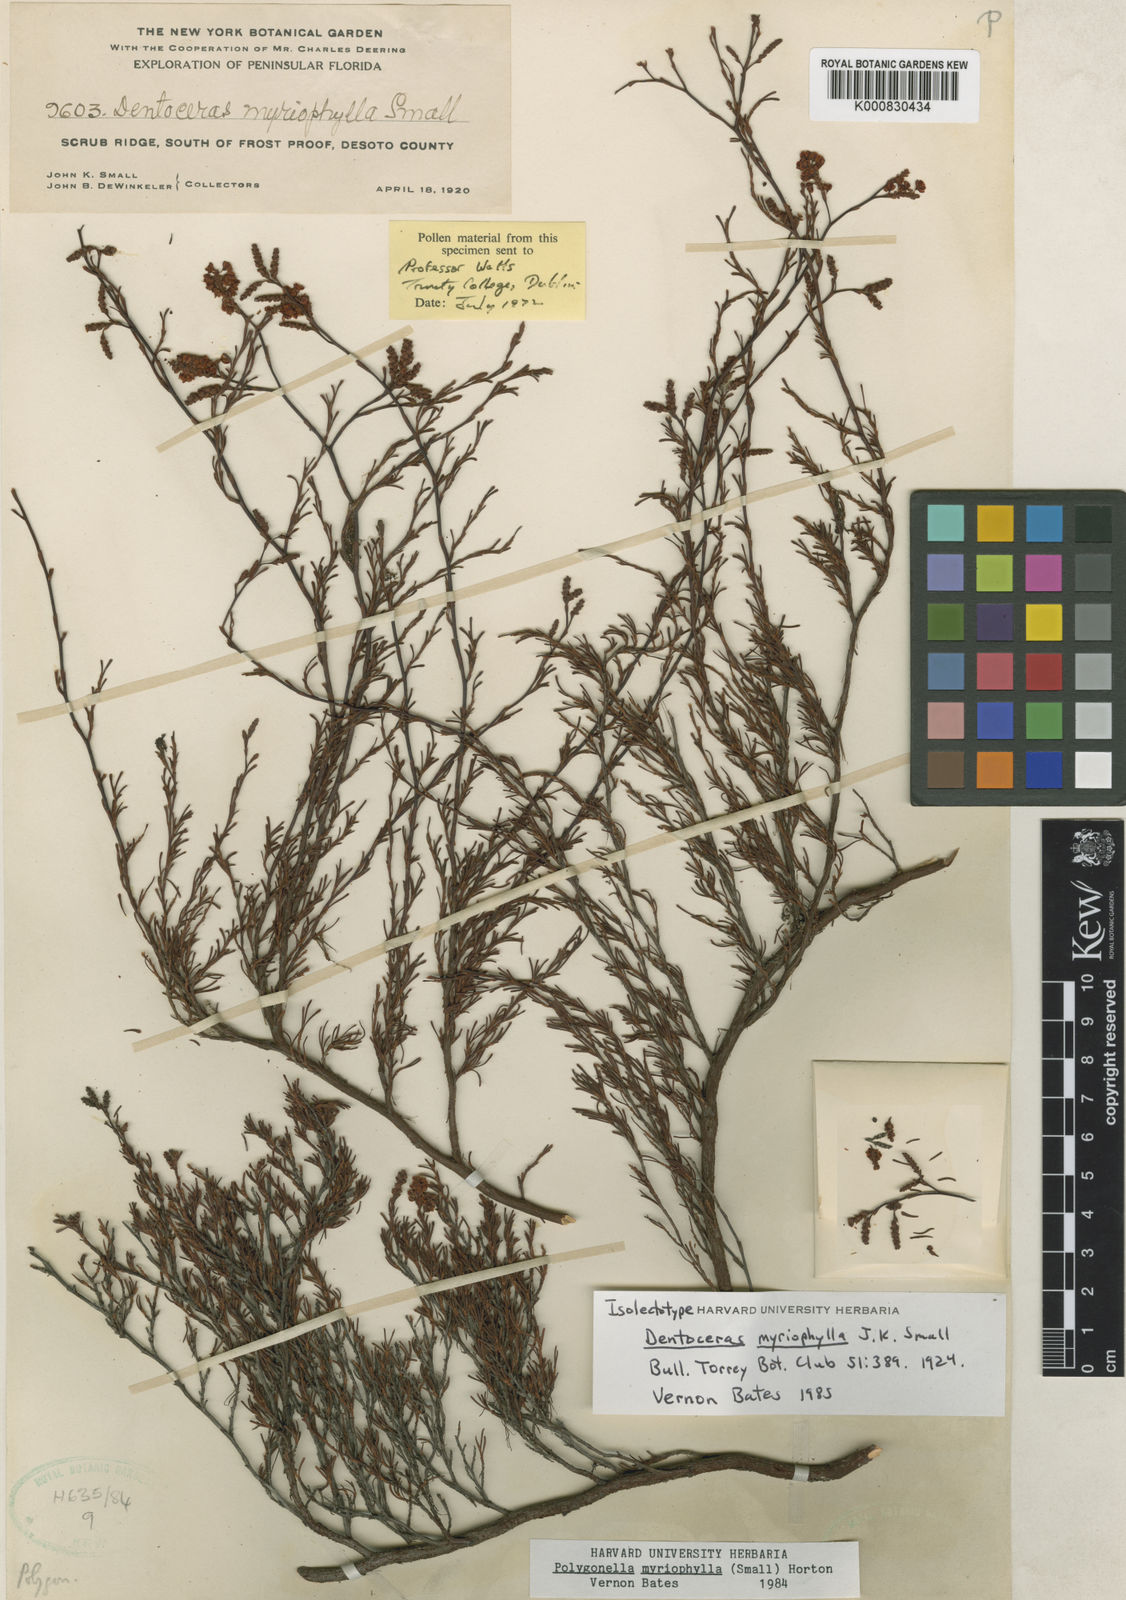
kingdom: Plantae
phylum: Tracheophyta
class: Magnoliopsida
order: Caryophyllales
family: Polygonaceae
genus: Polygonella
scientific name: Polygonella myriophylla
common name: Sandlace
